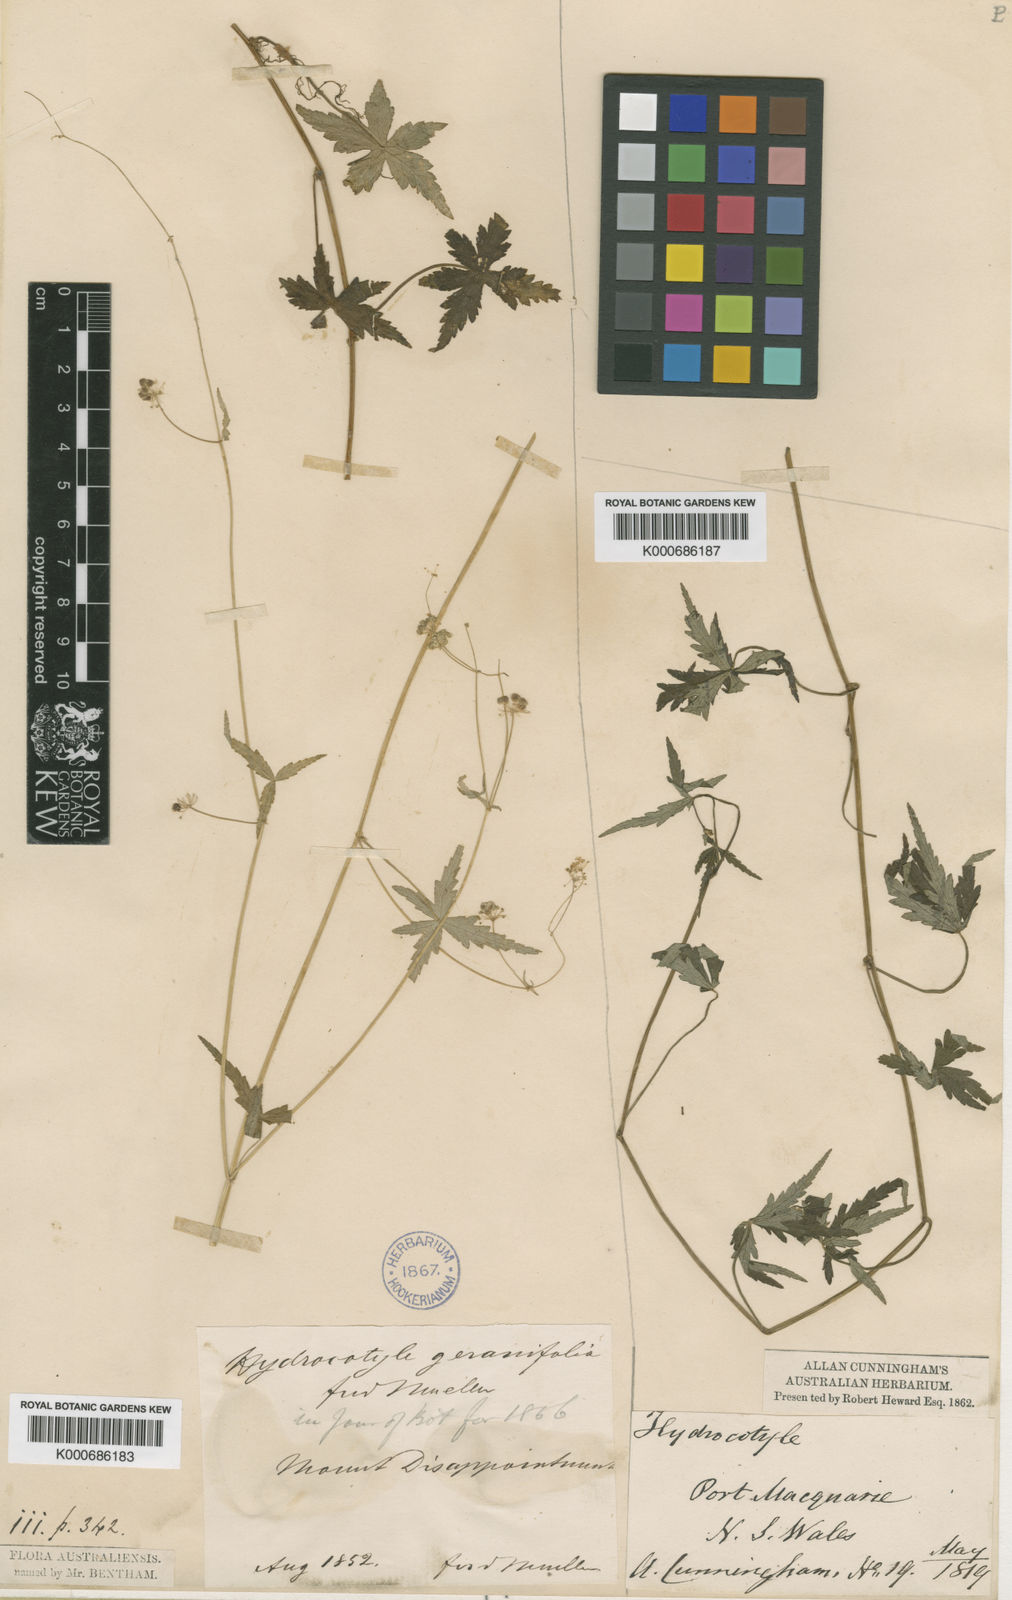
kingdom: Plantae
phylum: Tracheophyta
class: Magnoliopsida
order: Apiales
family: Araliaceae
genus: Hydrocotyle
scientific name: Hydrocotyle geraniifolia
